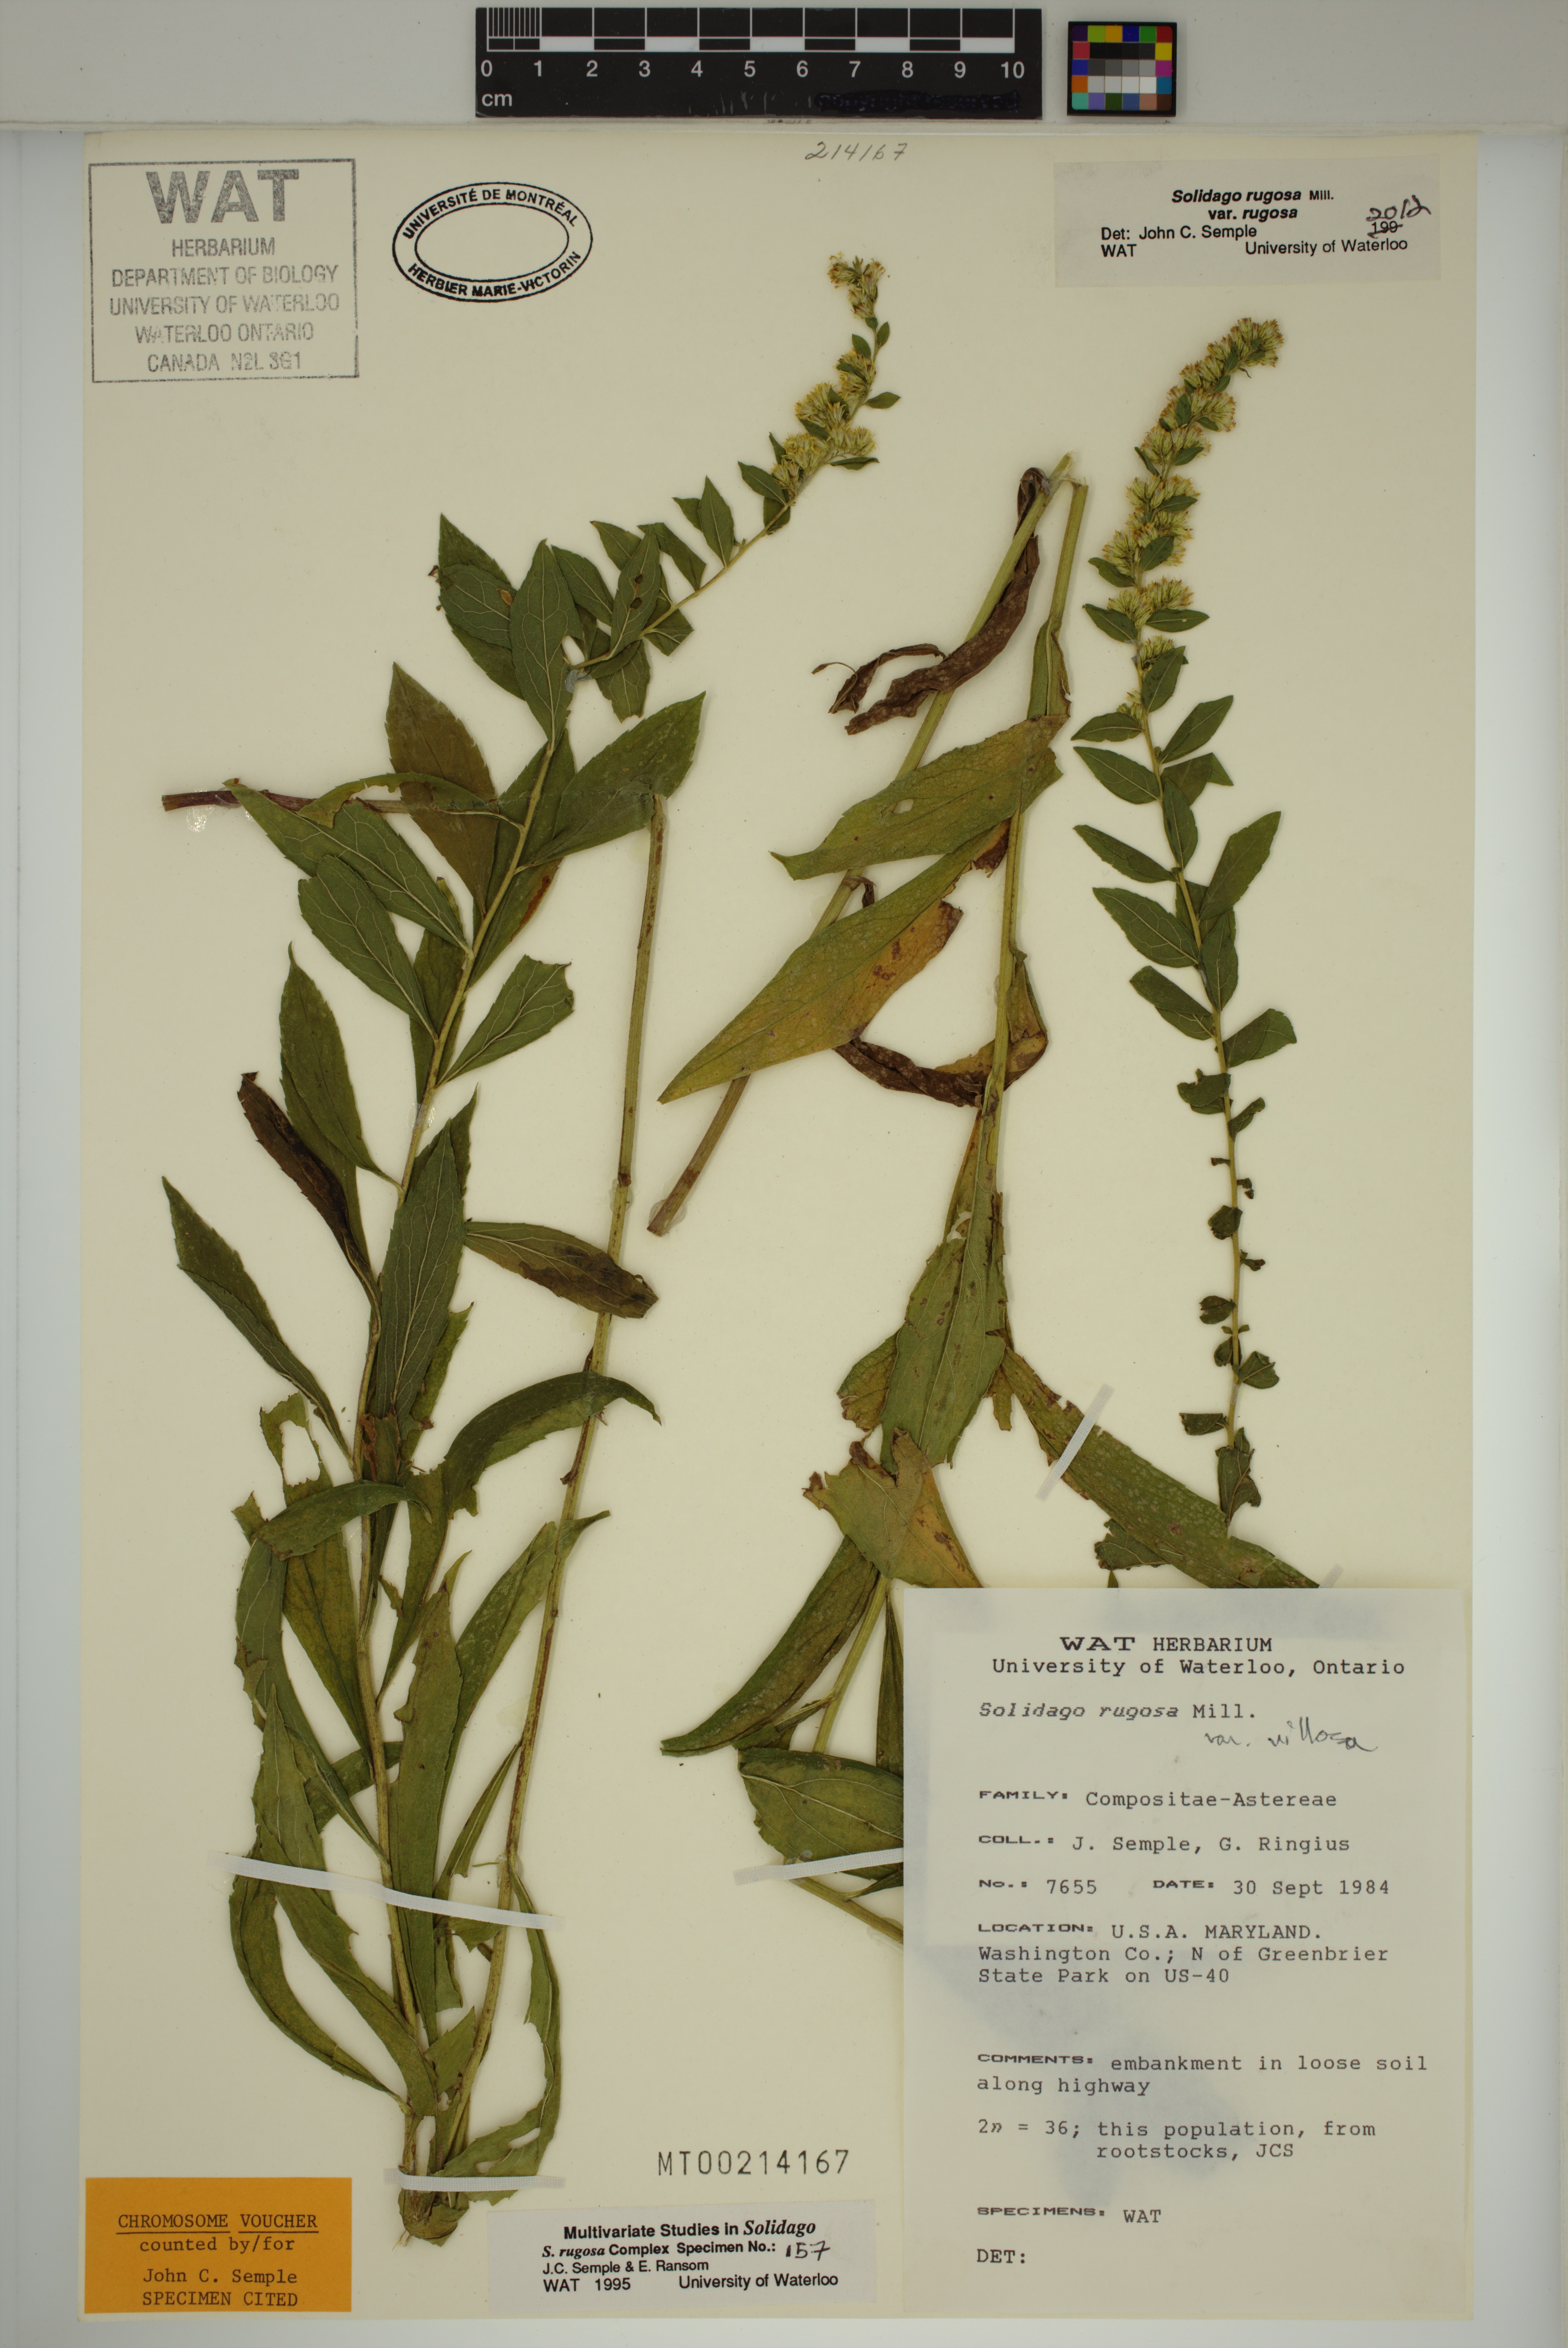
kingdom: Plantae
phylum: Tracheophyta
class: Magnoliopsida
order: Asterales
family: Asteraceae
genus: Solidago
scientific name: Solidago rugosa
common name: Rough-stemmed goldenrod
